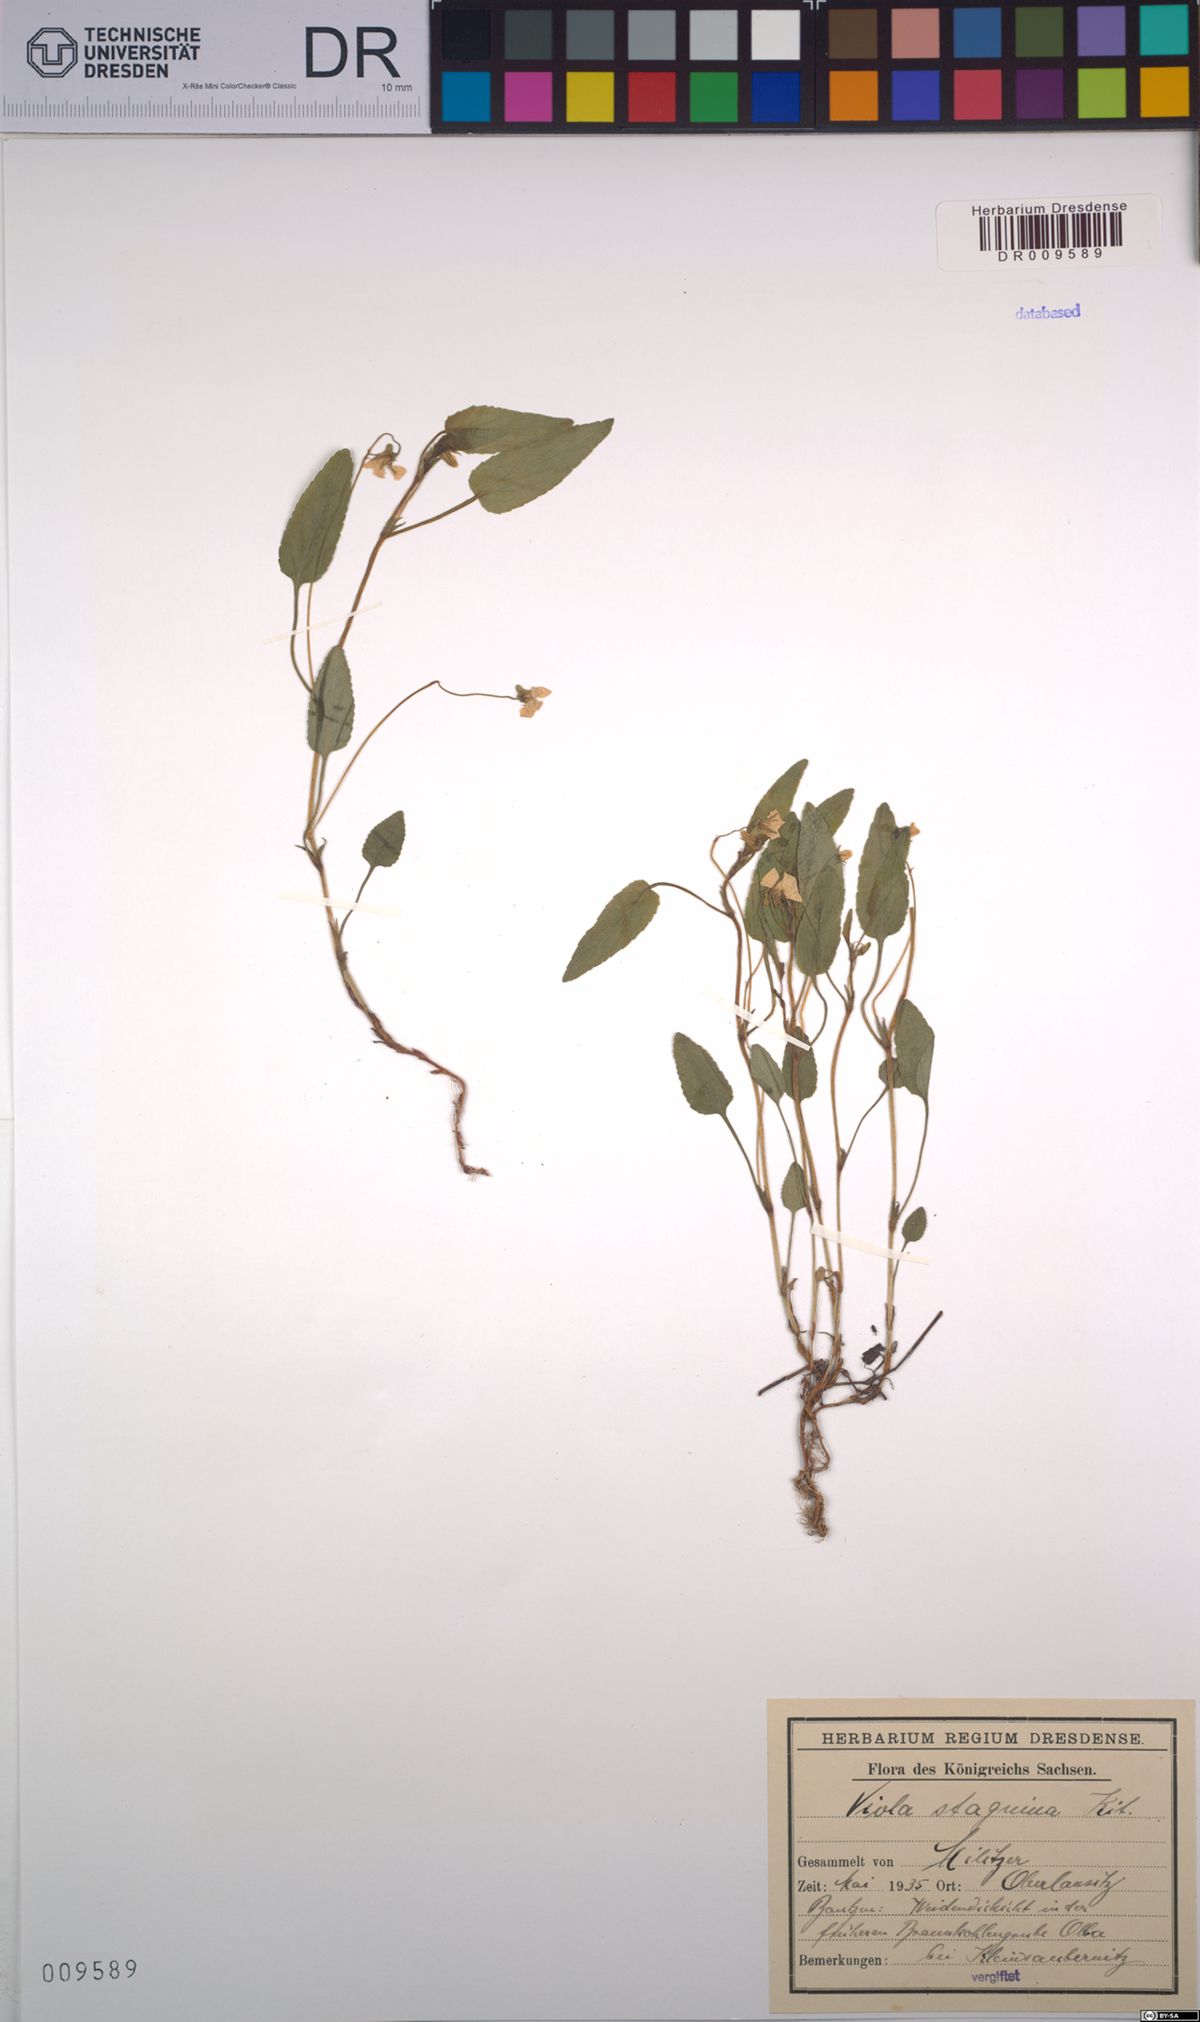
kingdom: Plantae
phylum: Tracheophyta
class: Magnoliopsida
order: Malpighiales
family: Violaceae
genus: Viola
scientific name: Viola stagnina
